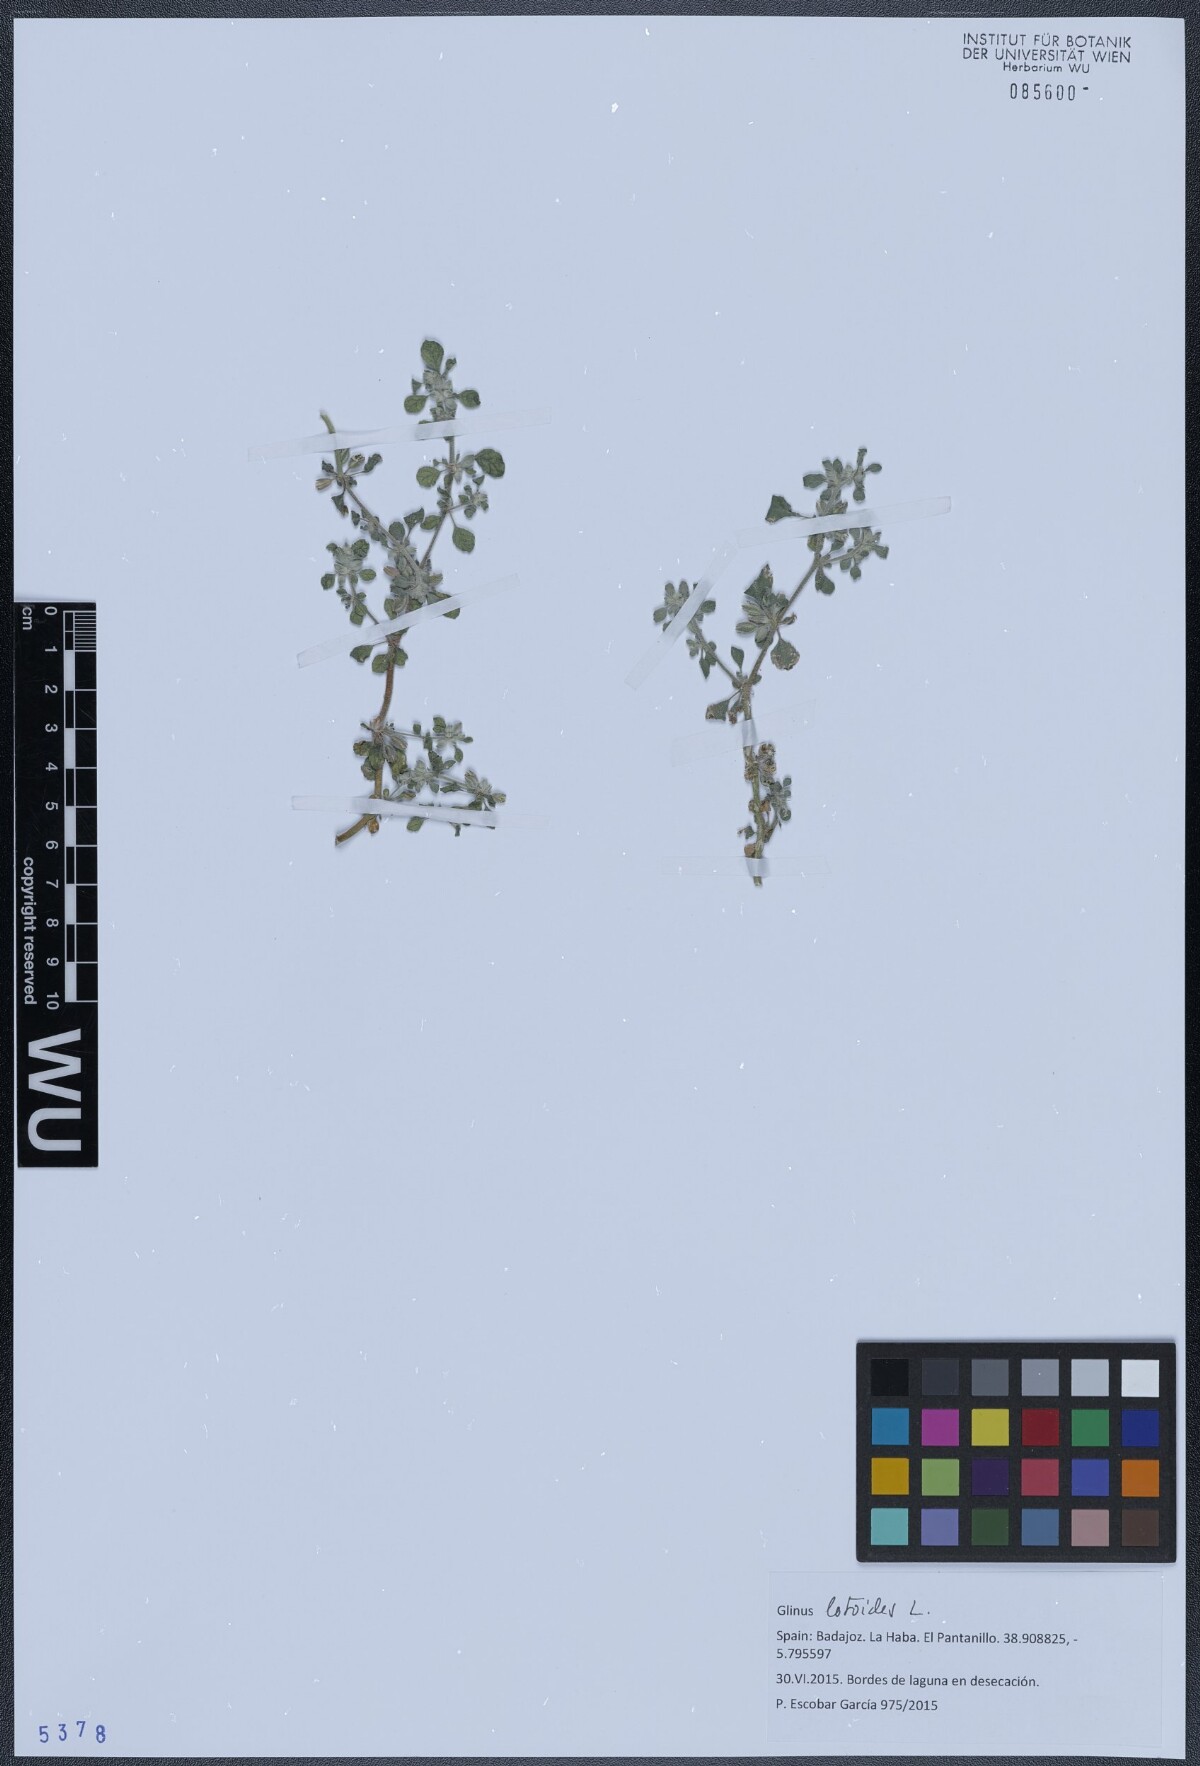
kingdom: Plantae
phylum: Tracheophyta
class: Magnoliopsida
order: Caryophyllales
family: Molluginaceae
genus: Glinus
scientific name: Glinus lotoides
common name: Lotus sweetjuice
